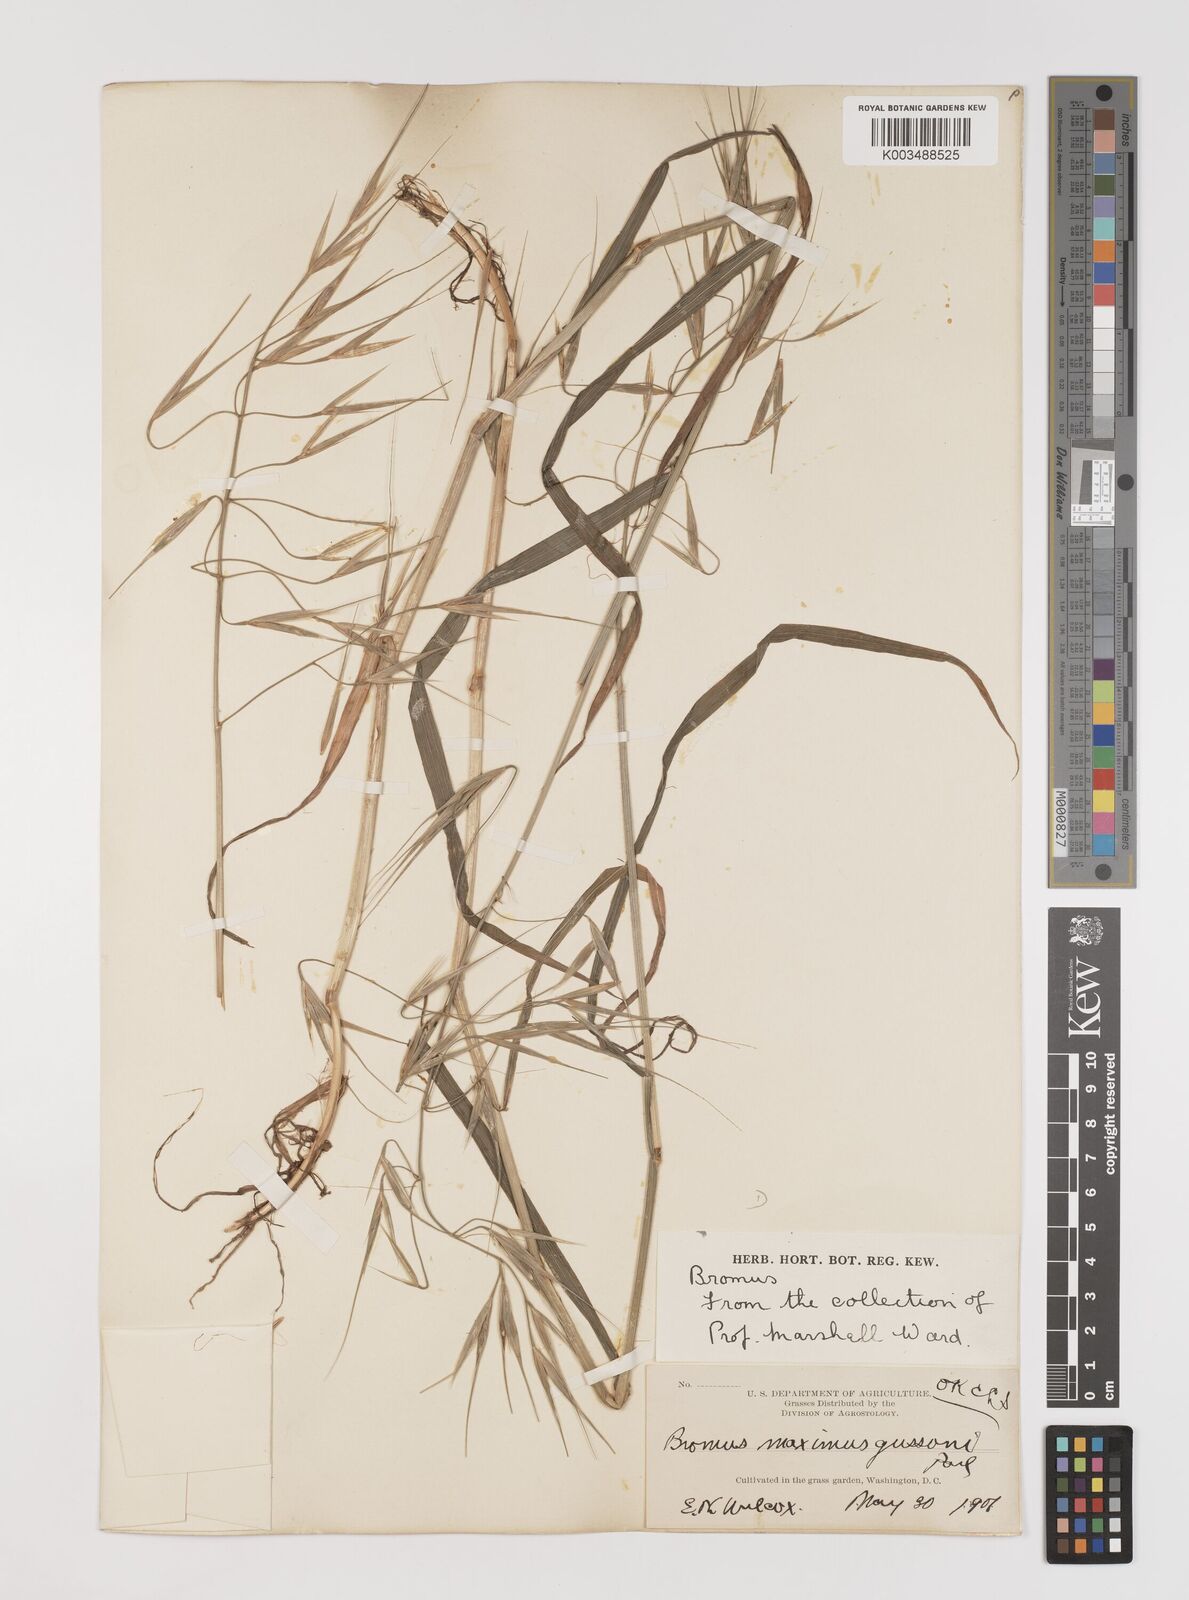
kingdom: Plantae
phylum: Tracheophyta
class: Liliopsida
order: Poales
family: Poaceae
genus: Bromus
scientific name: Bromus diandrus
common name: Ripgut brome
